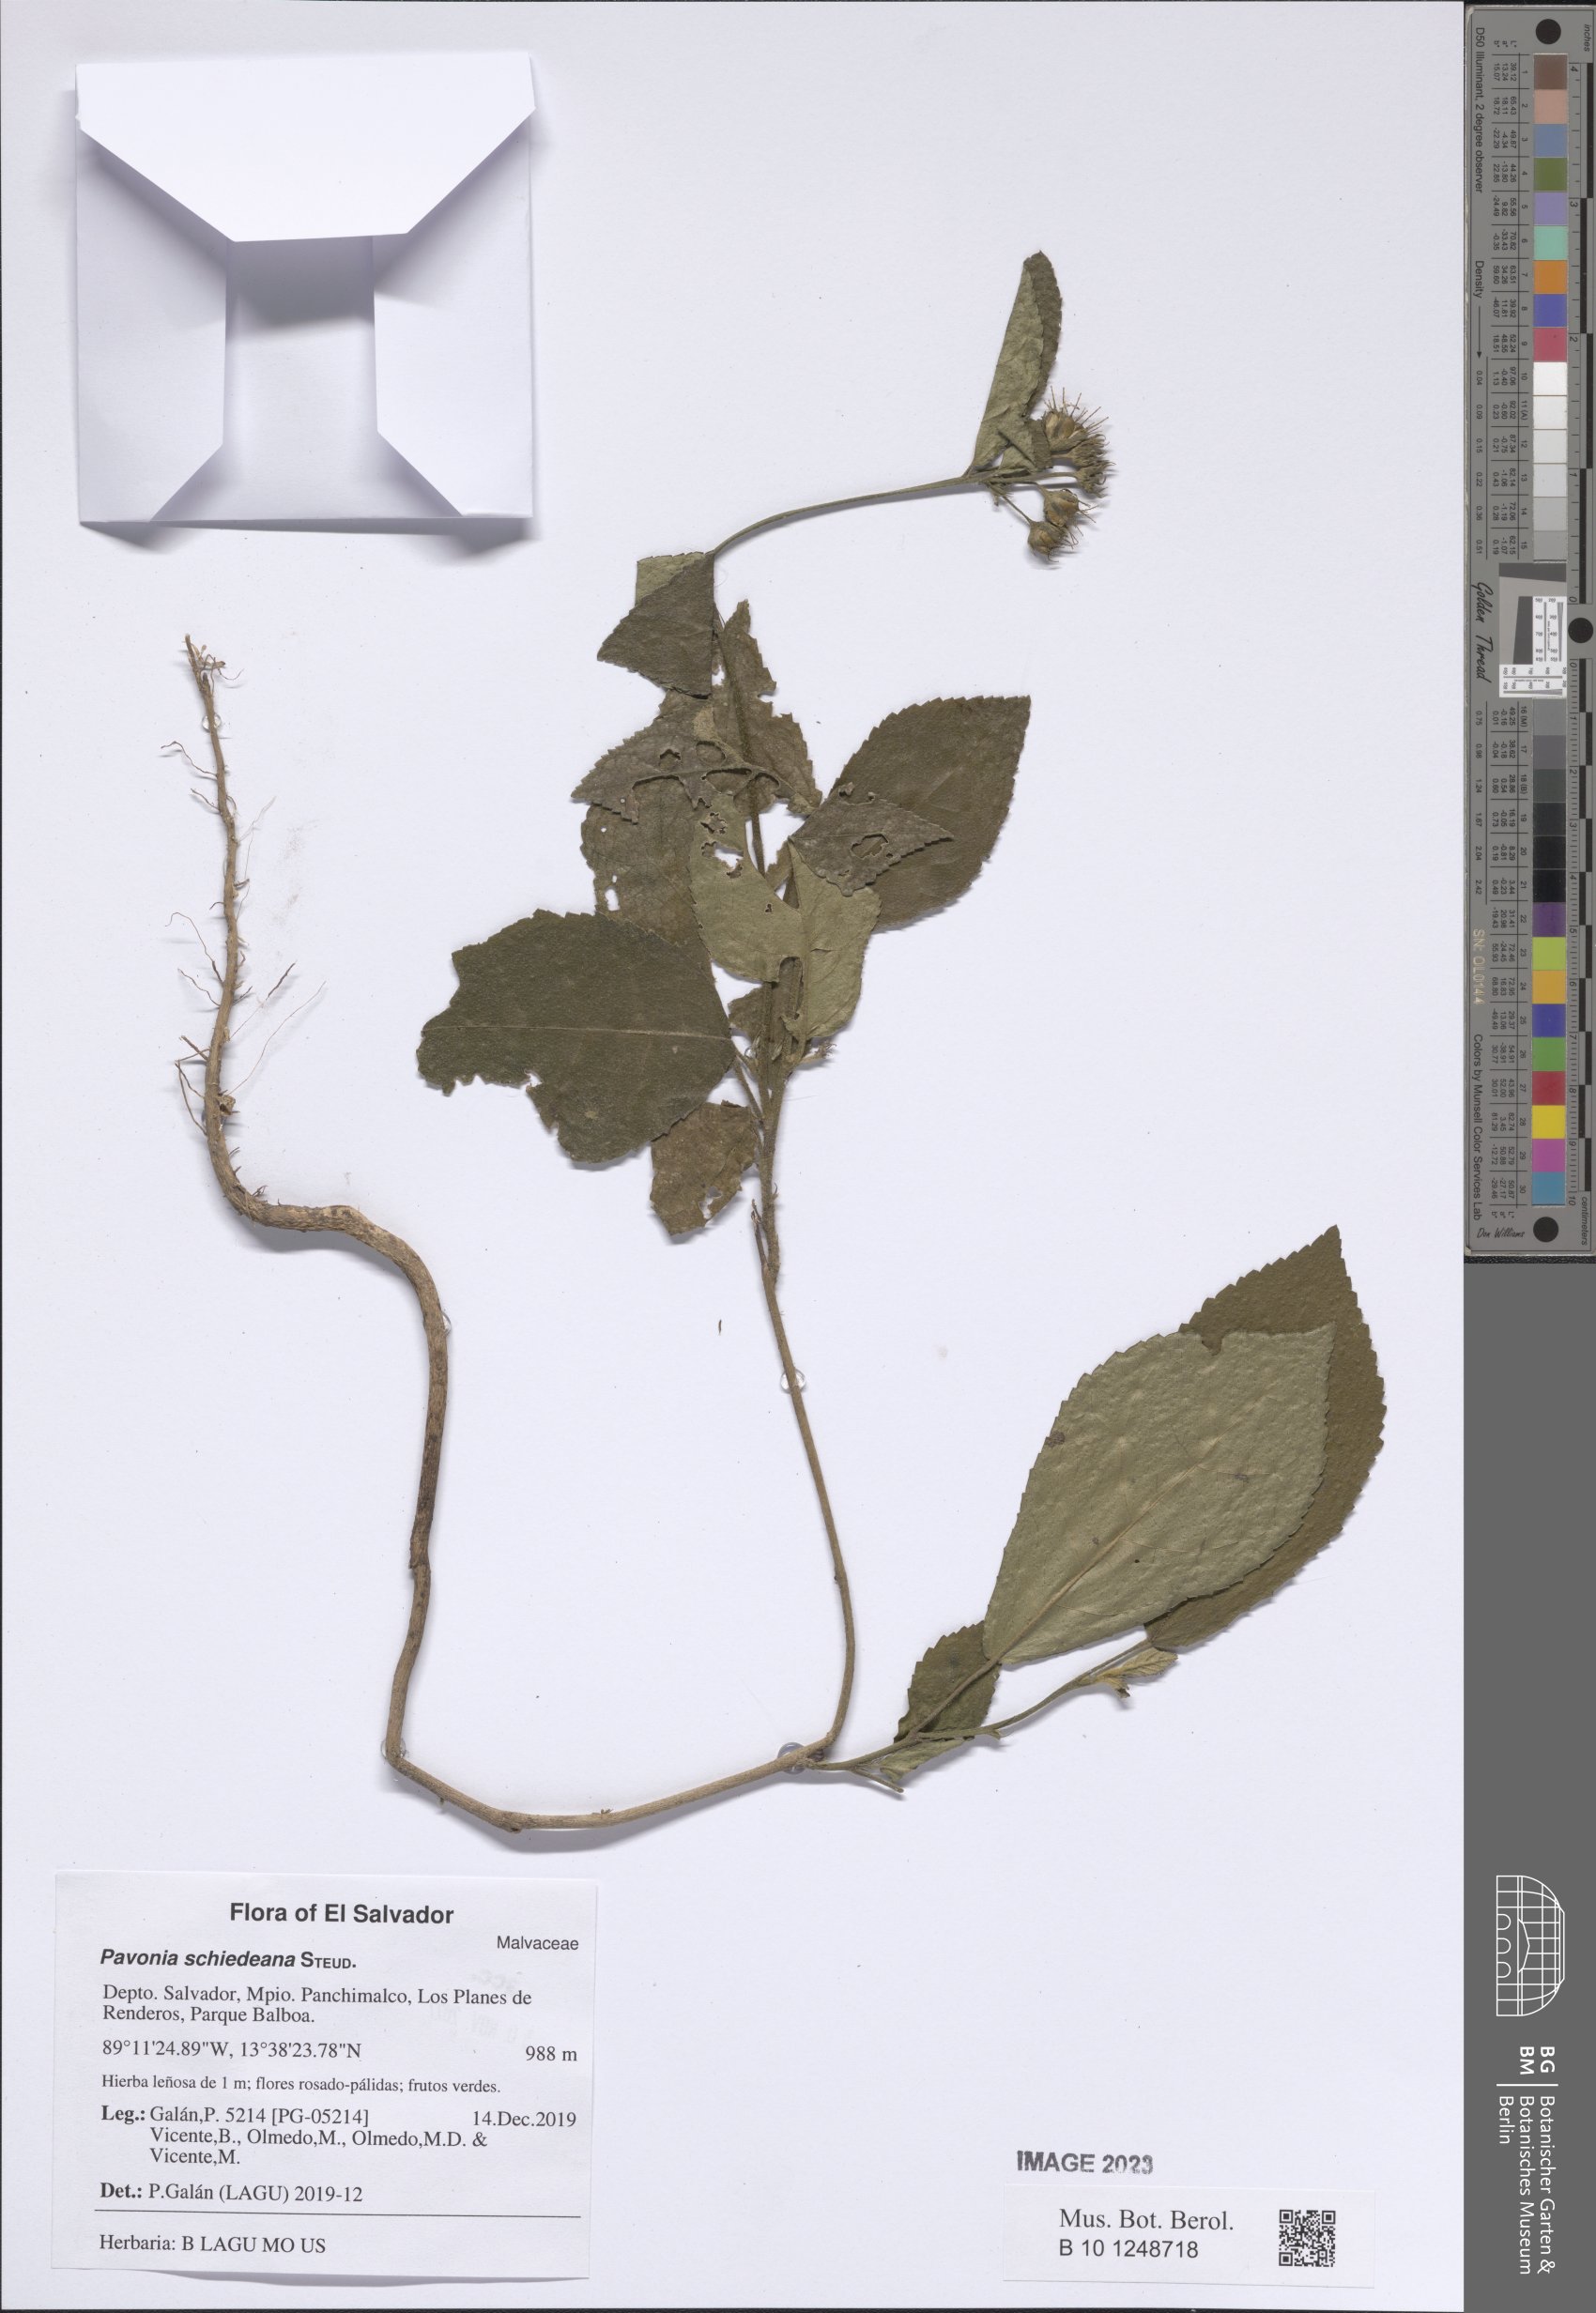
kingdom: Plantae
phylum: Tracheophyta
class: Magnoliopsida
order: Malvales
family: Malvaceae
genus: Pavonia
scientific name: Pavonia schiedeana
